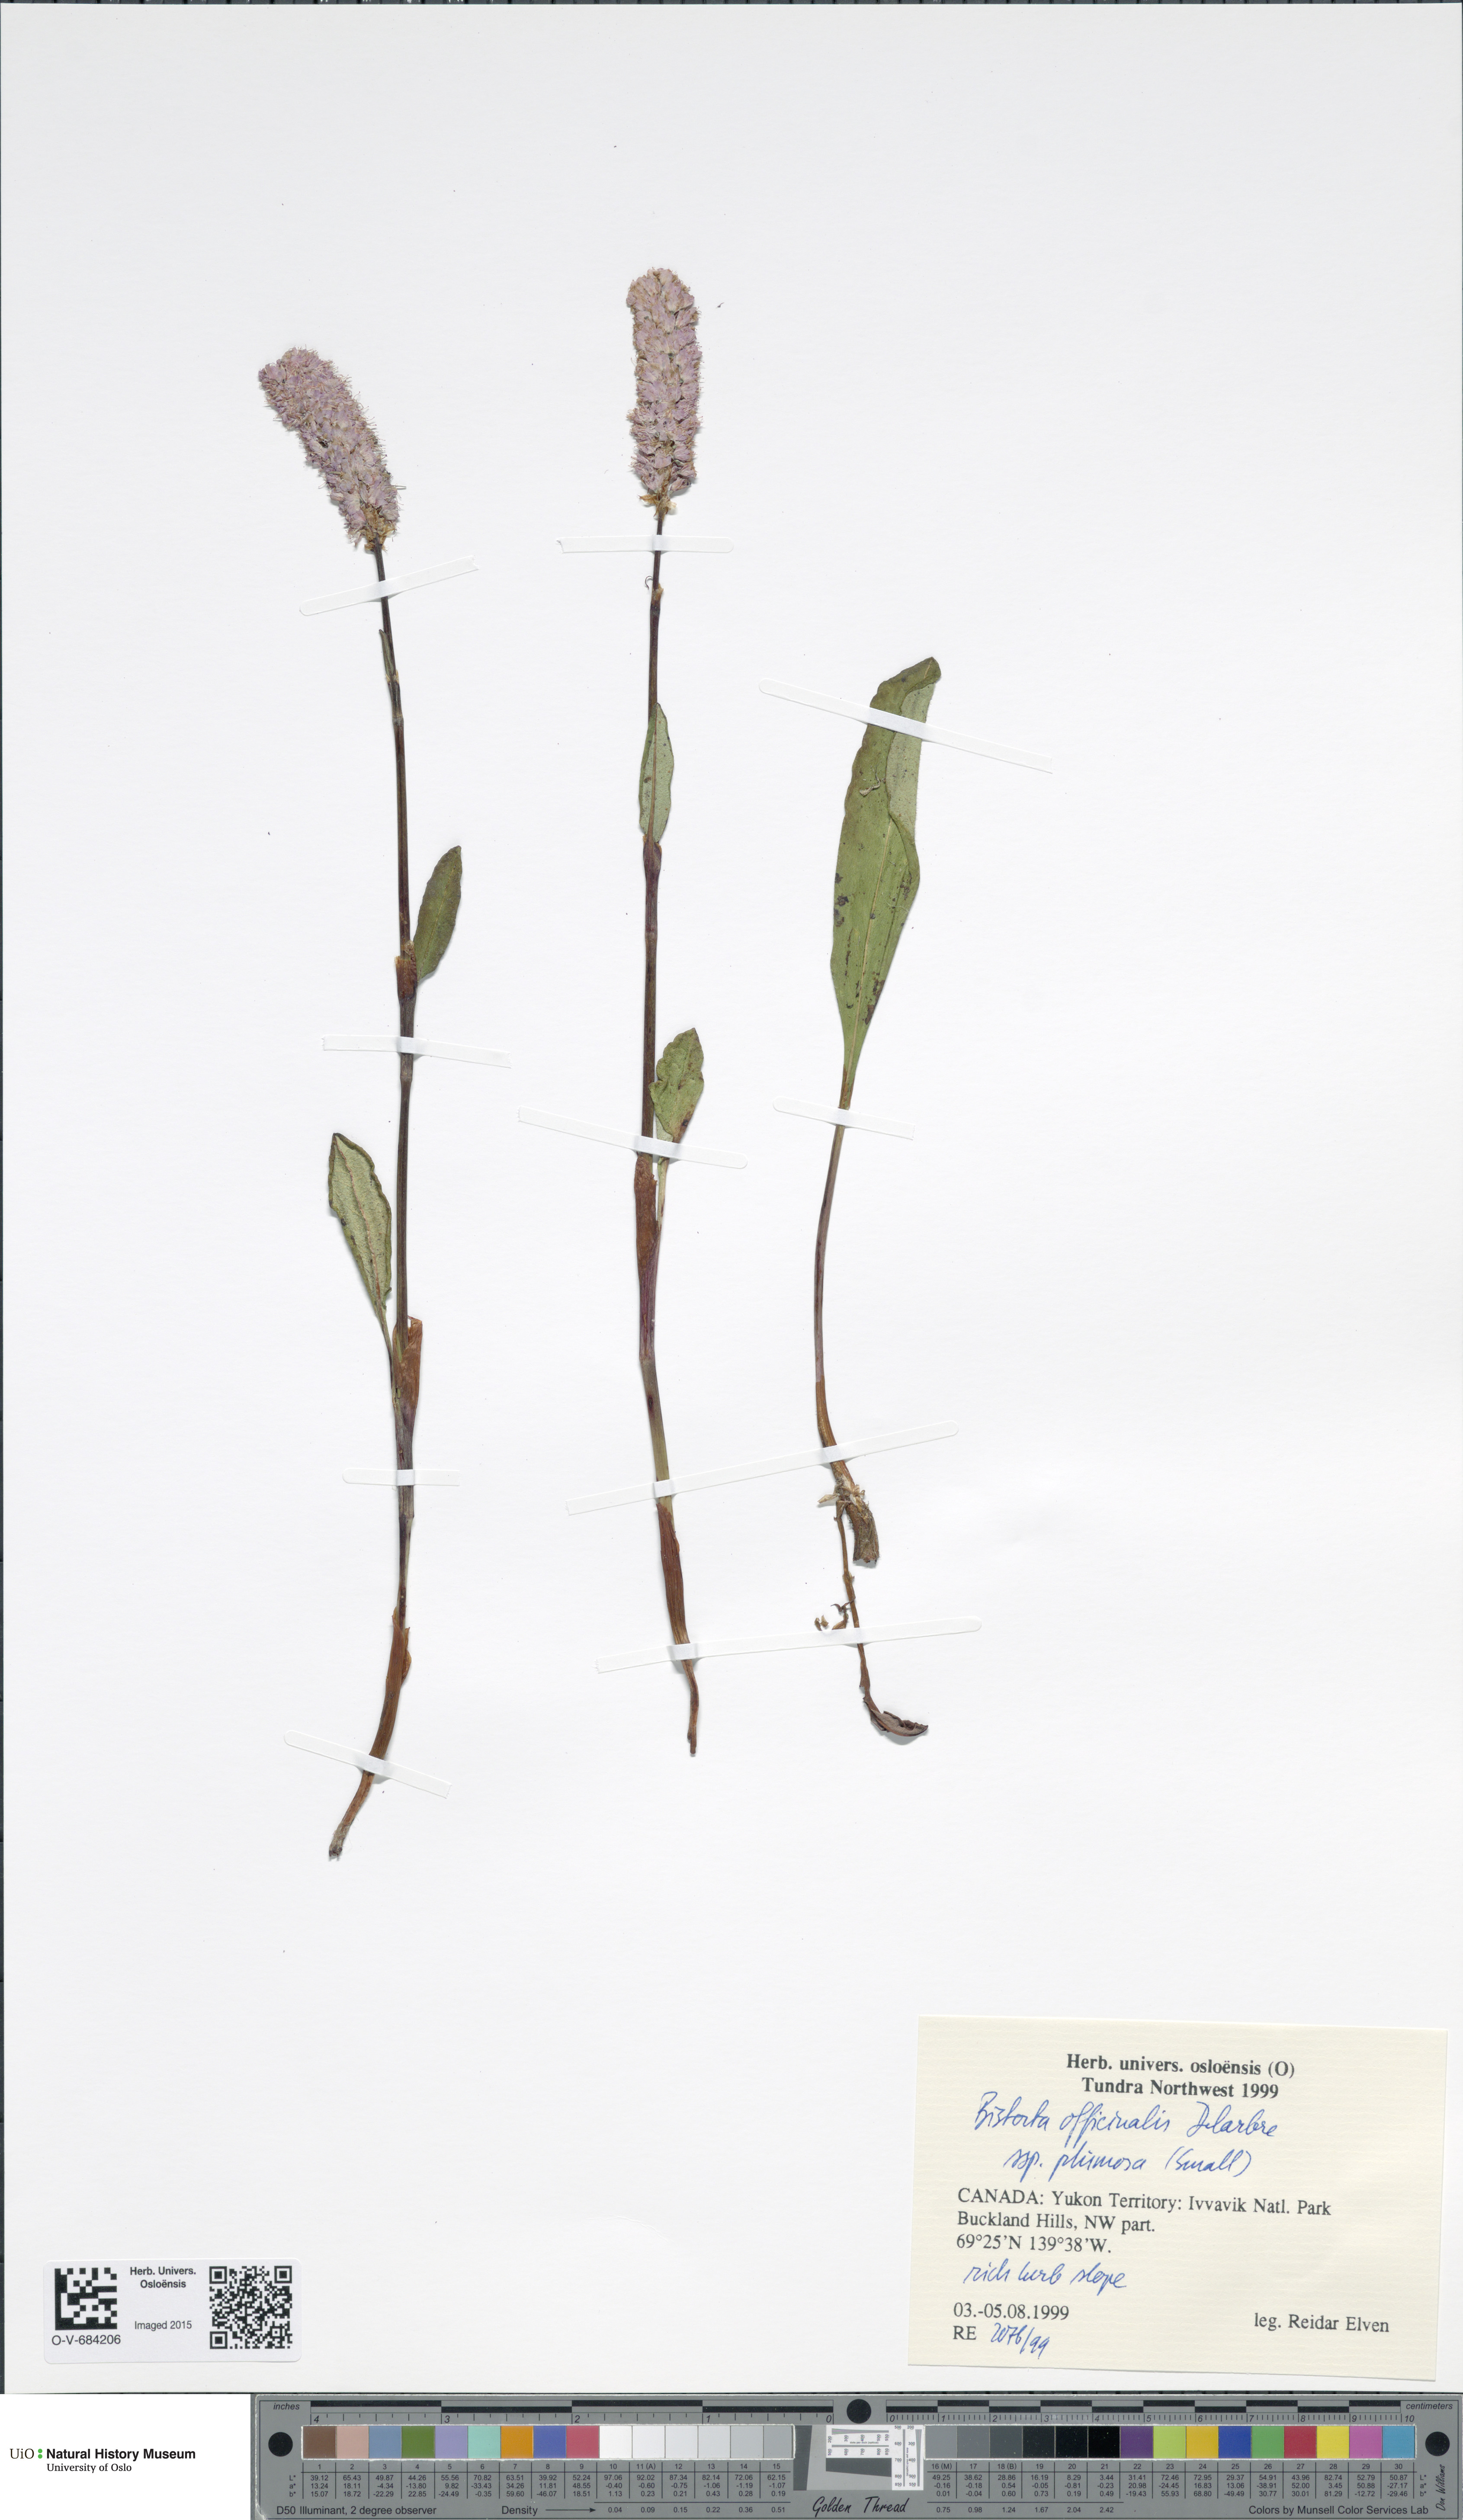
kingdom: Plantae
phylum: Tracheophyta
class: Magnoliopsida
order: Caryophyllales
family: Polygonaceae
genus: Bistorta
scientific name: Bistorta plumosa
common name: Meadow bistort
